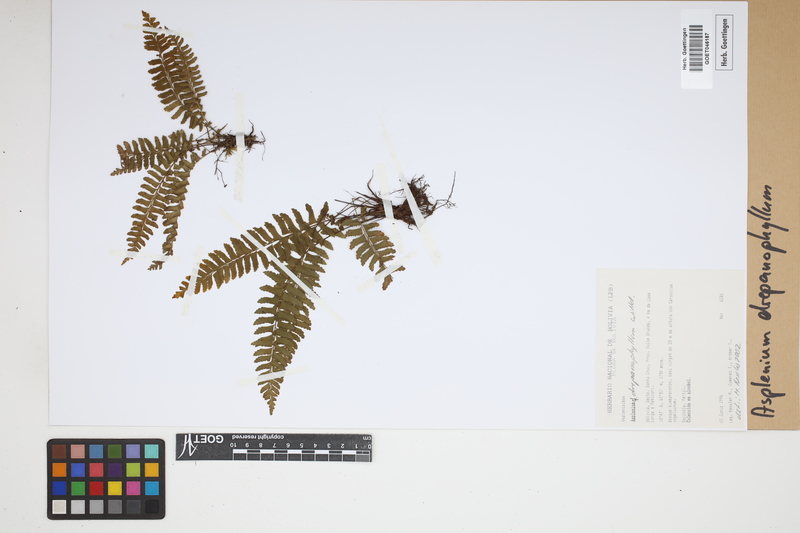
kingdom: Plantae
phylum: Tracheophyta
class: Polypodiopsida
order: Polypodiales
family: Aspleniaceae
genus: Asplenium
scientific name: Asplenium drepanophyllum
